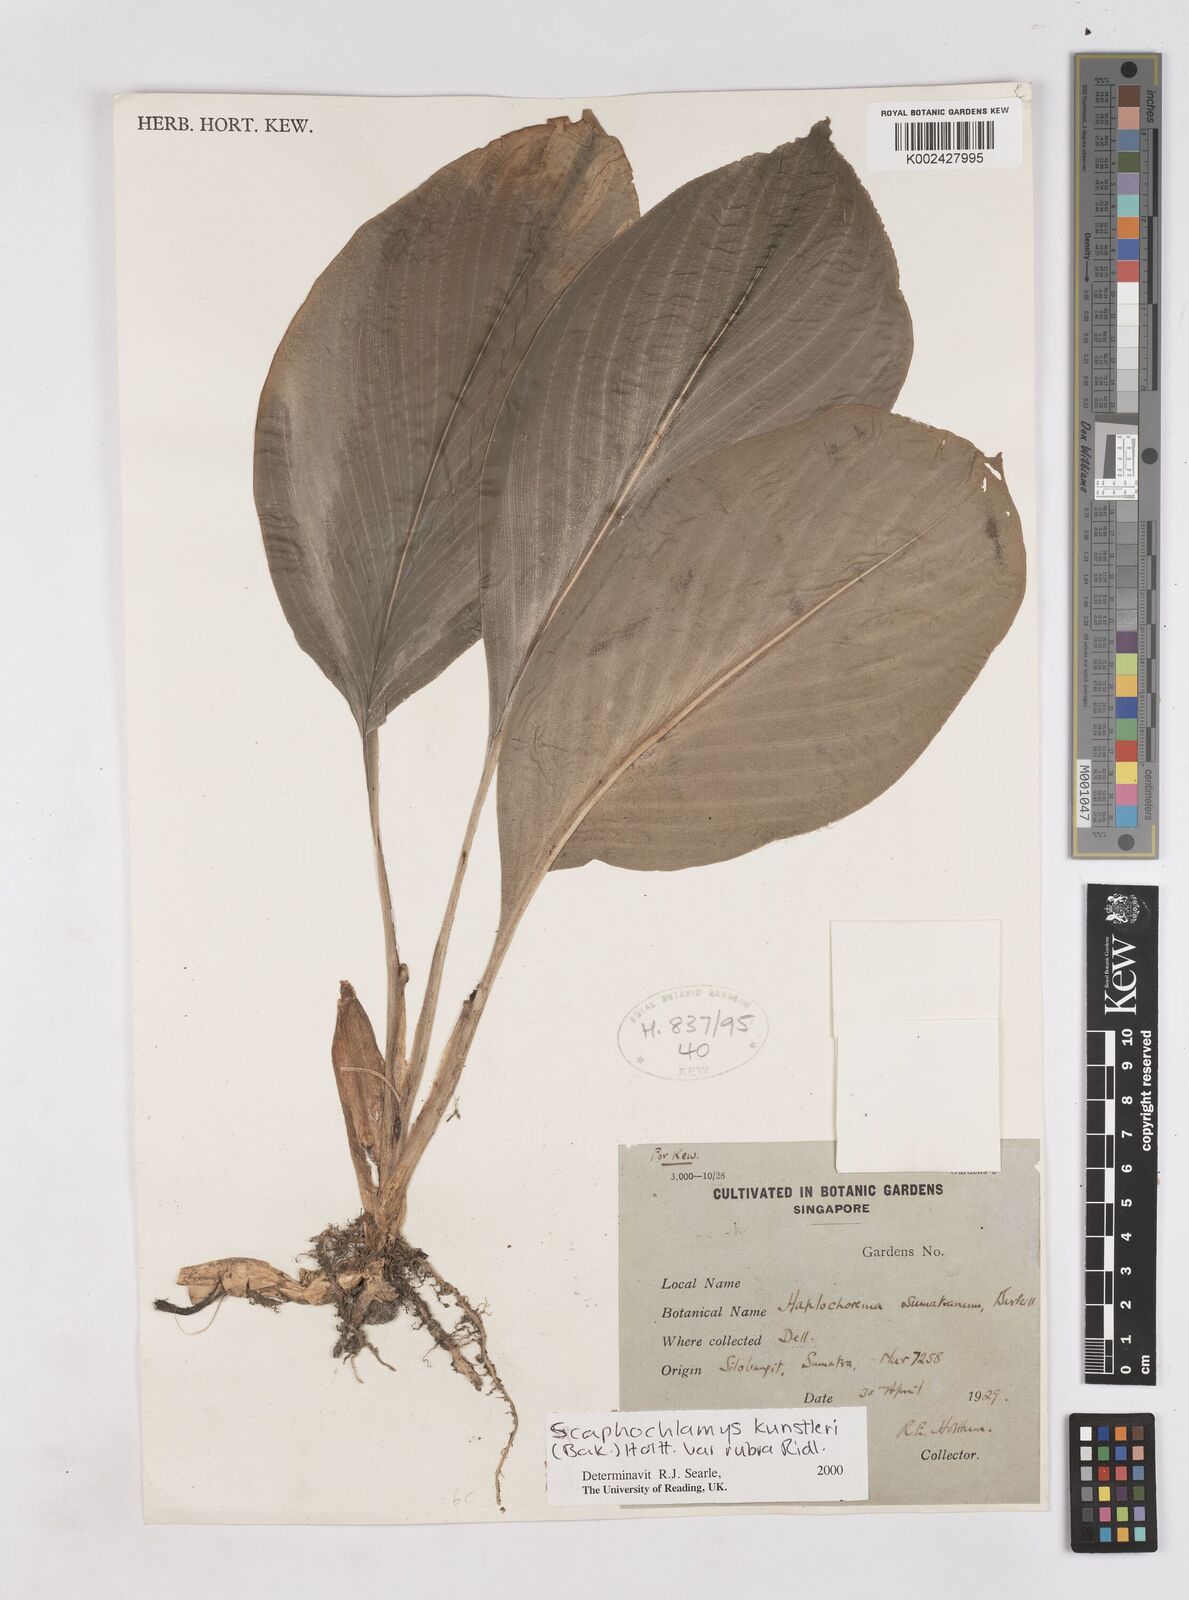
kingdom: Plantae
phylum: Tracheophyta
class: Liliopsida
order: Zingiberales
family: Zingiberaceae
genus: Scaphochlamys
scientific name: Scaphochlamys kunstleri
